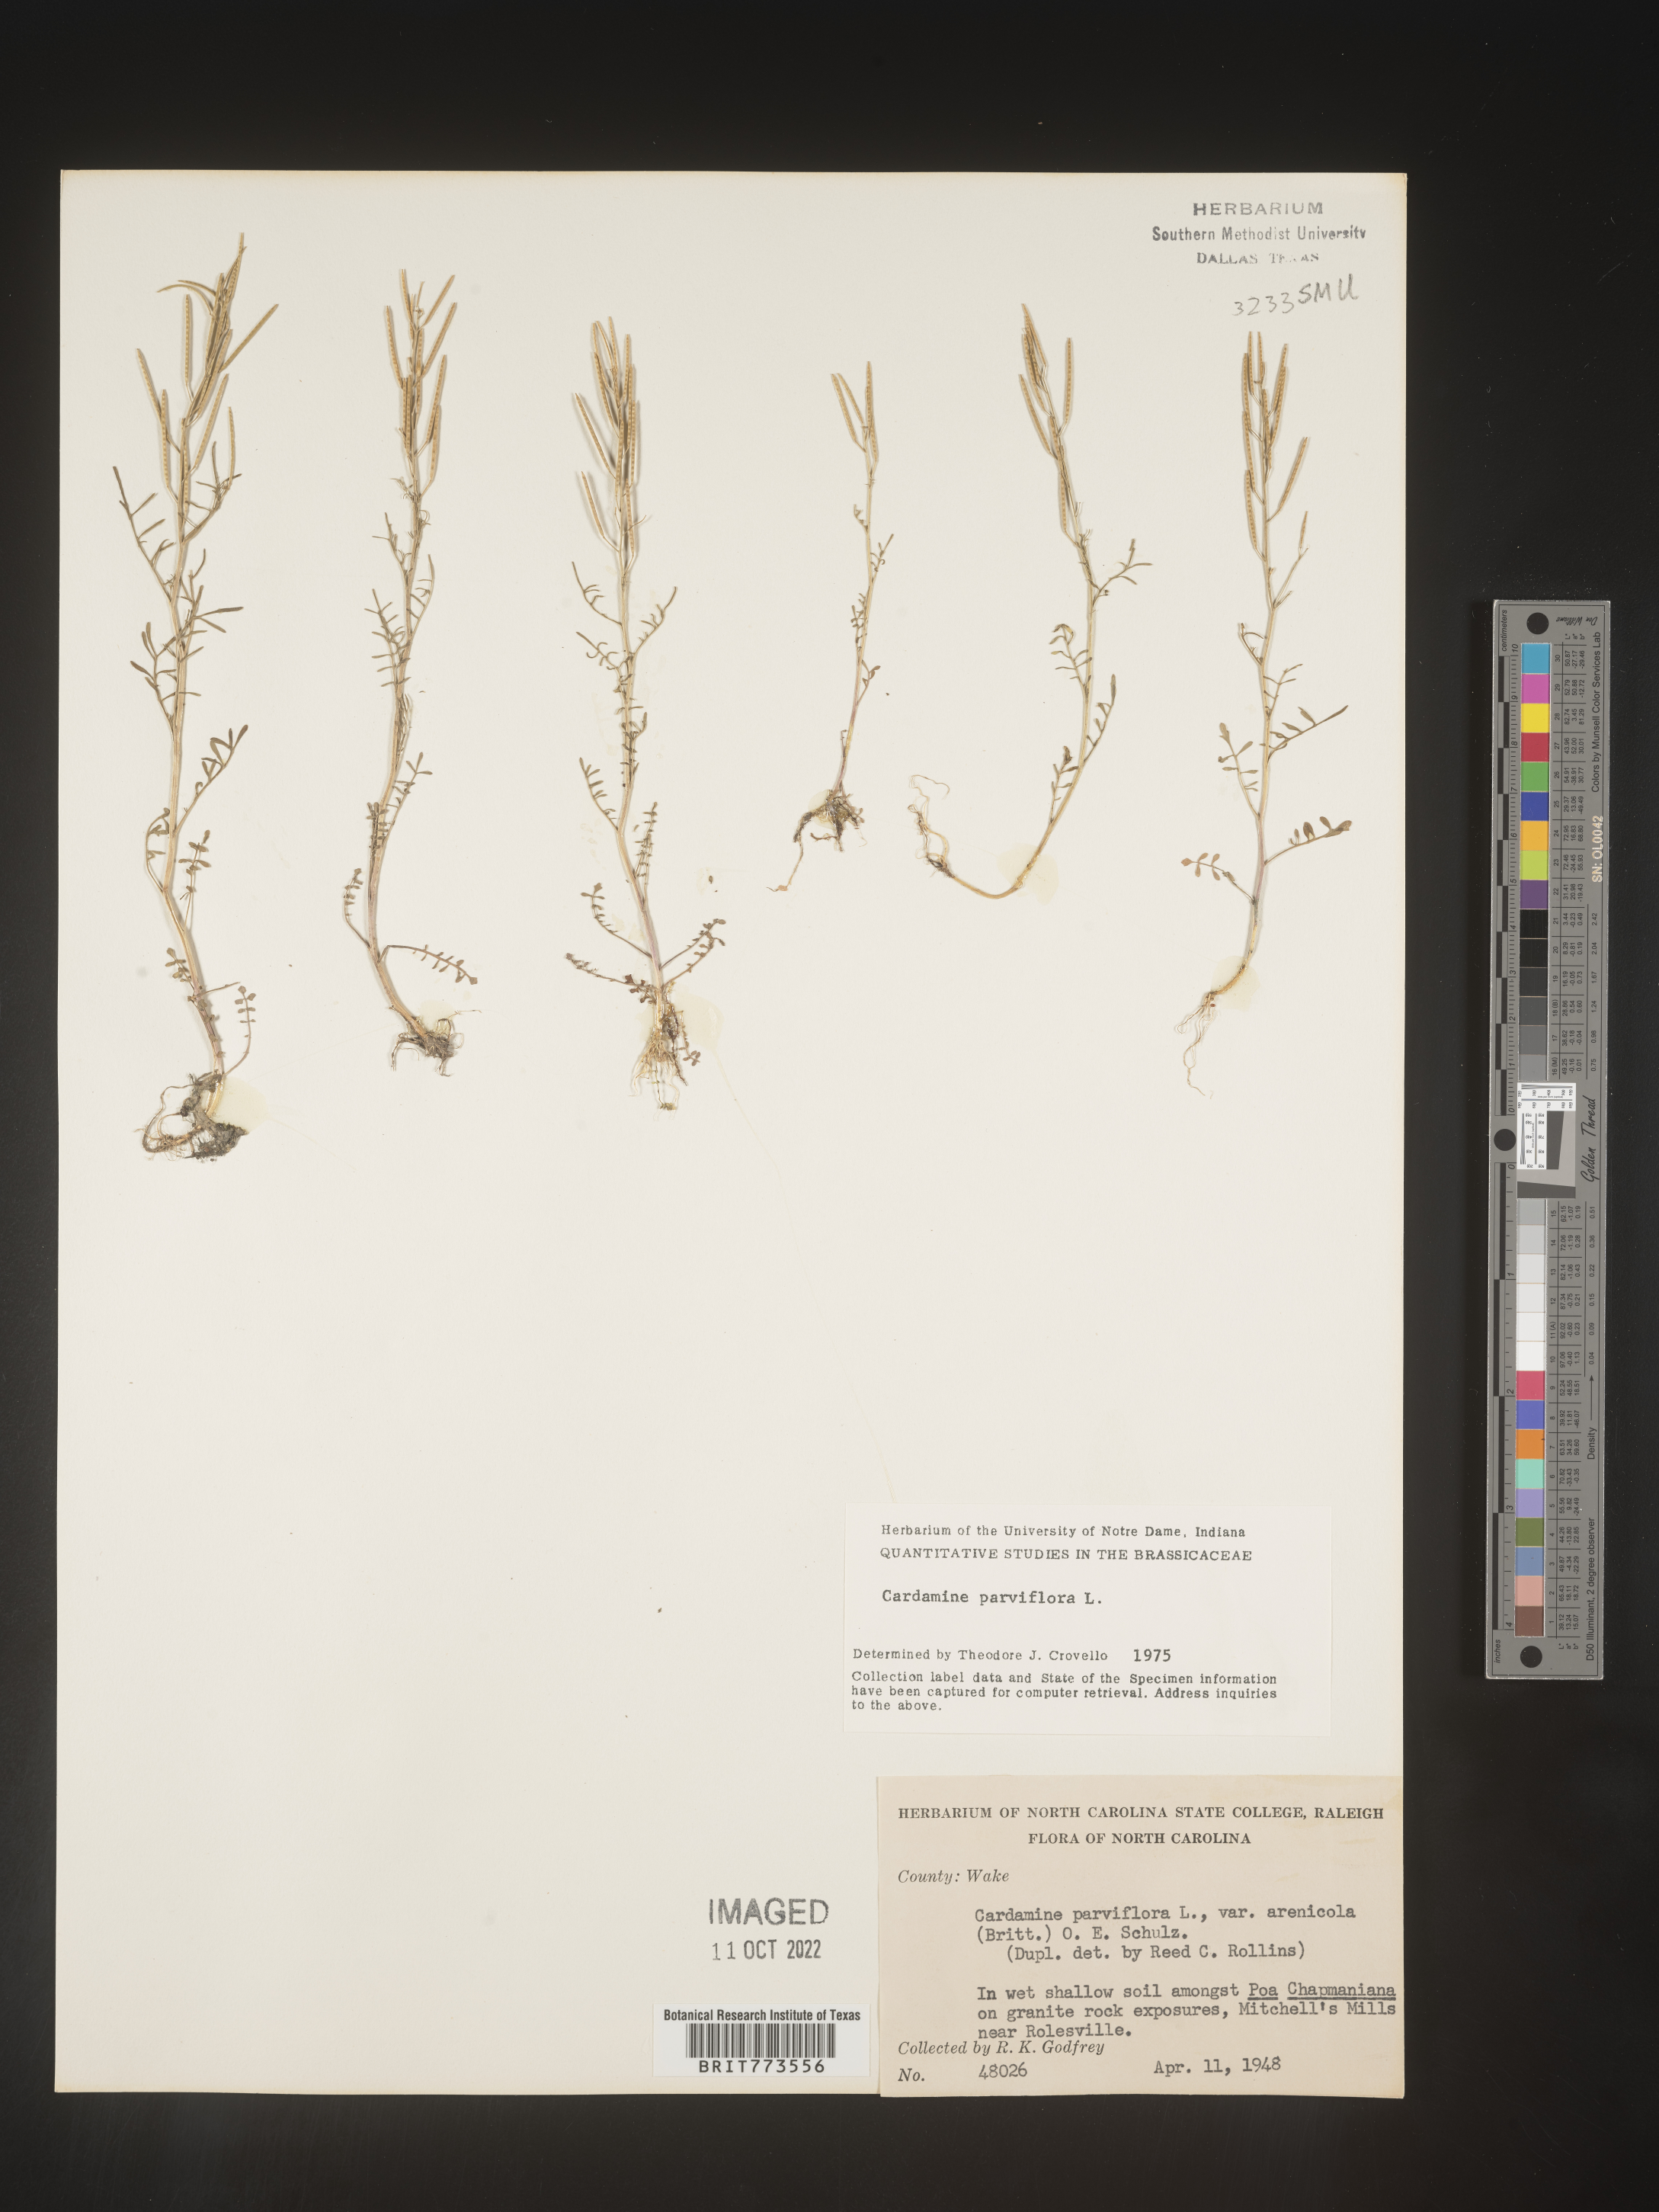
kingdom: Plantae
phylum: Tracheophyta
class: Magnoliopsida
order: Brassicales
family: Brassicaceae
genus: Cardamine
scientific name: Cardamine parviflora
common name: Sand bittercress
